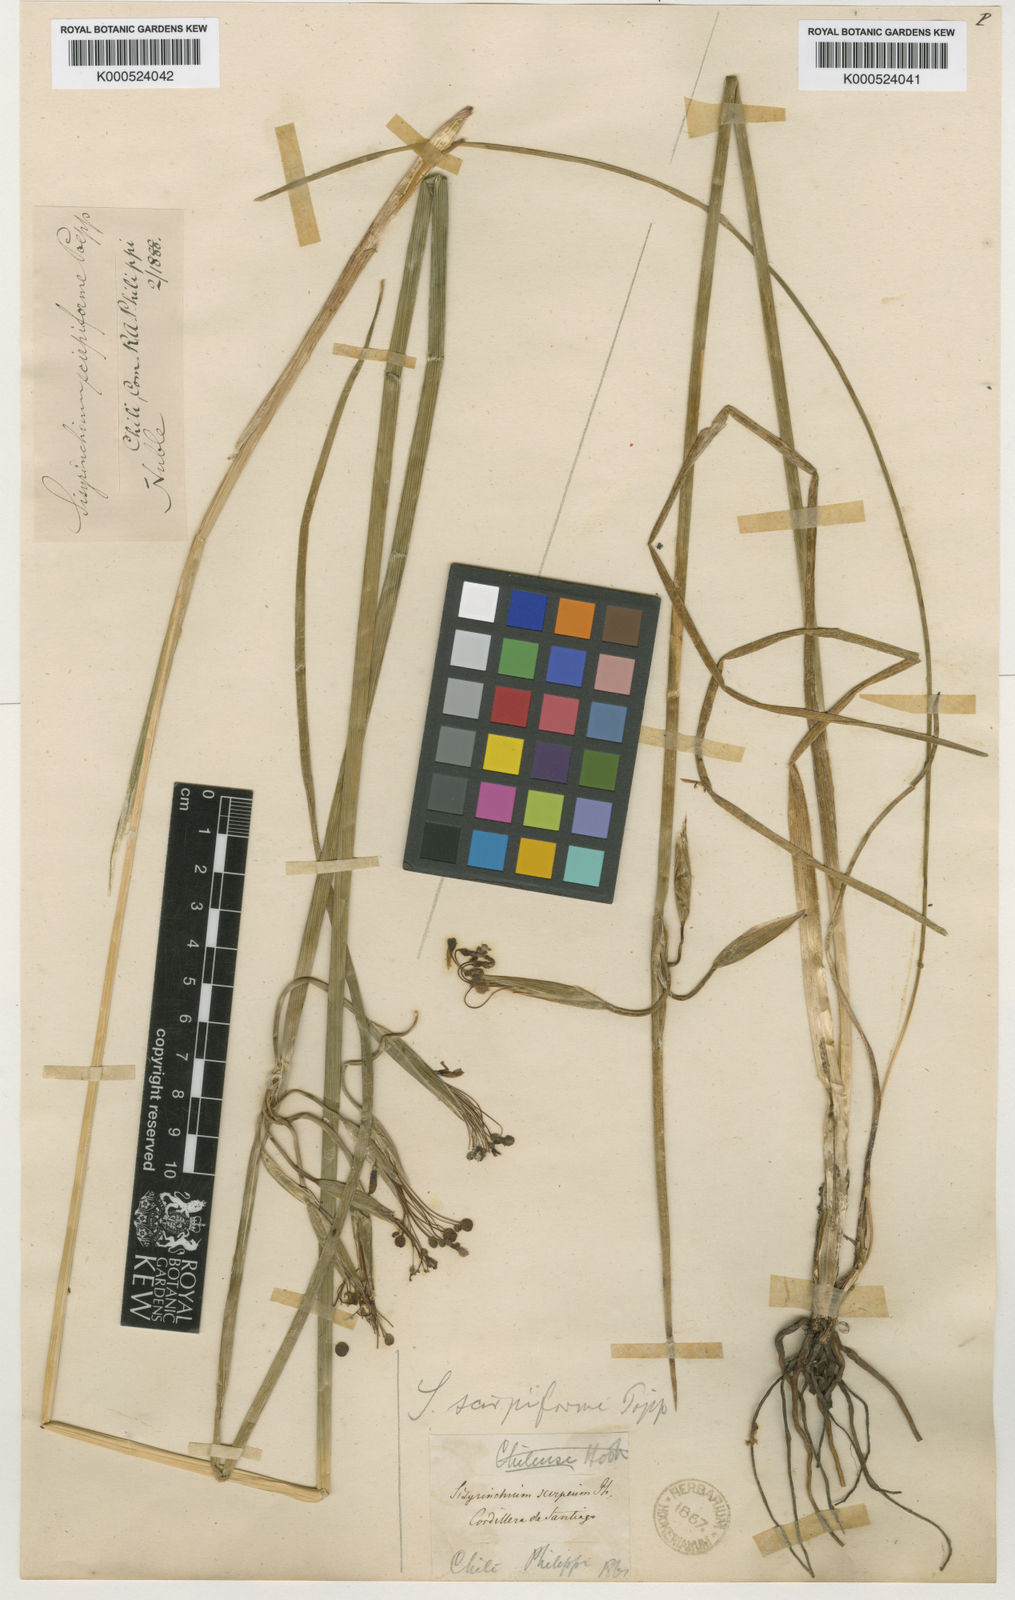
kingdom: Plantae
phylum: Tracheophyta
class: Liliopsida
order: Asparagales
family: Iridaceae
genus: Olsynium
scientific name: Olsynium junceum
